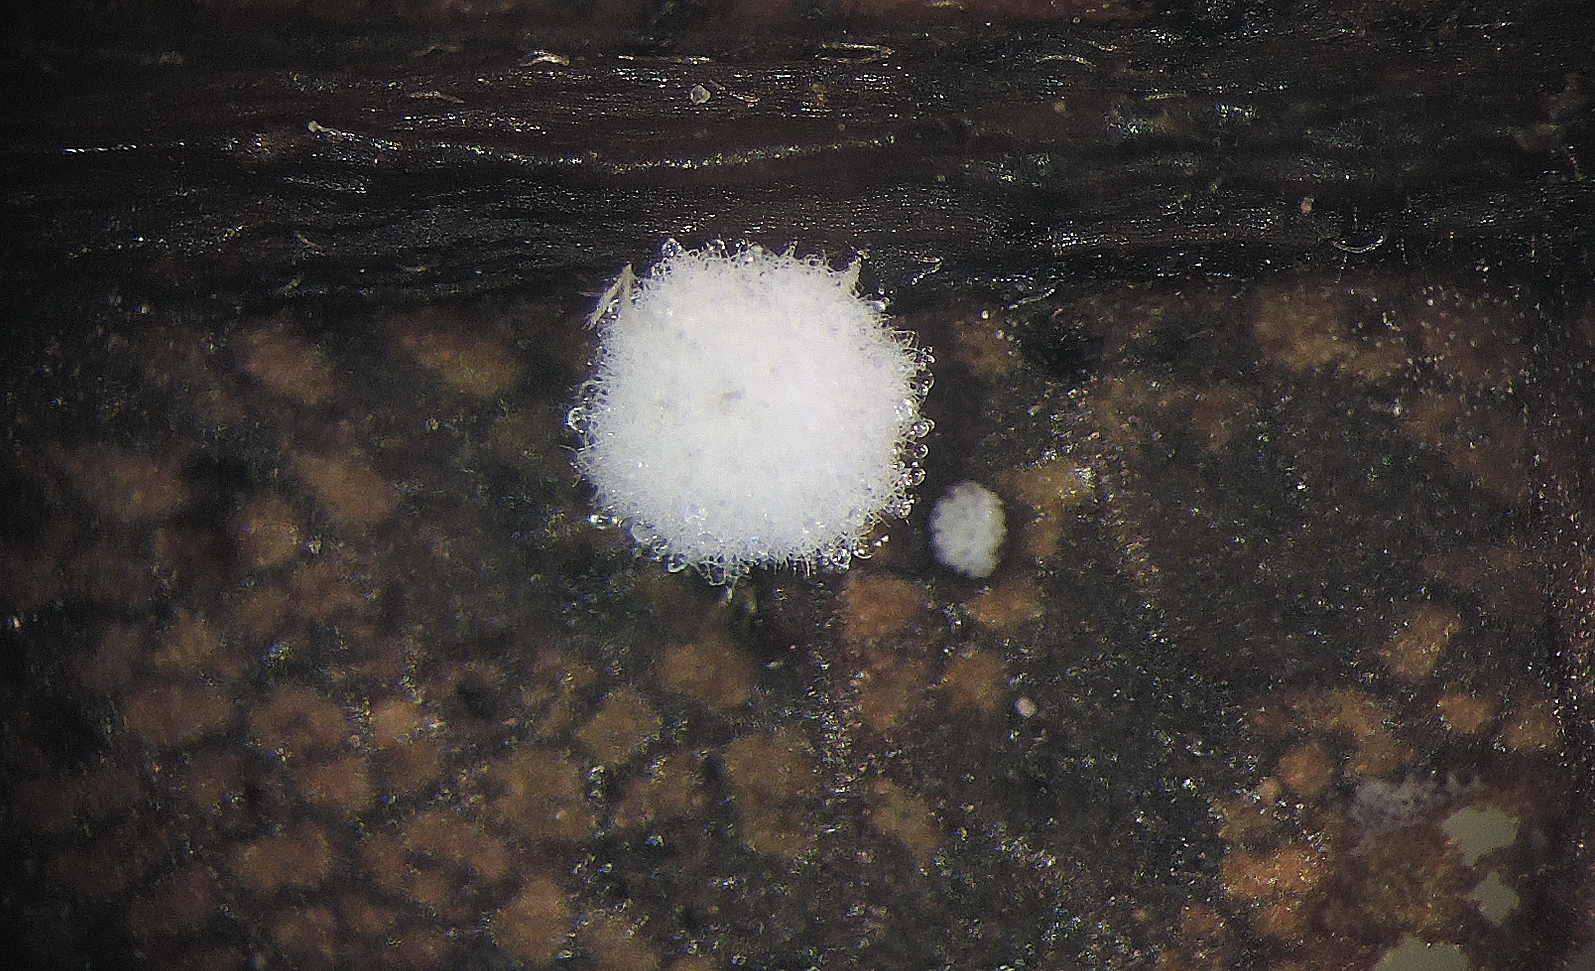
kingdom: Fungi
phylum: Ascomycota
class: Sordariomycetes
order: Hypocreales
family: Nectriaceae
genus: Cylindrocarpon
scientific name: Cylindrocarpon
